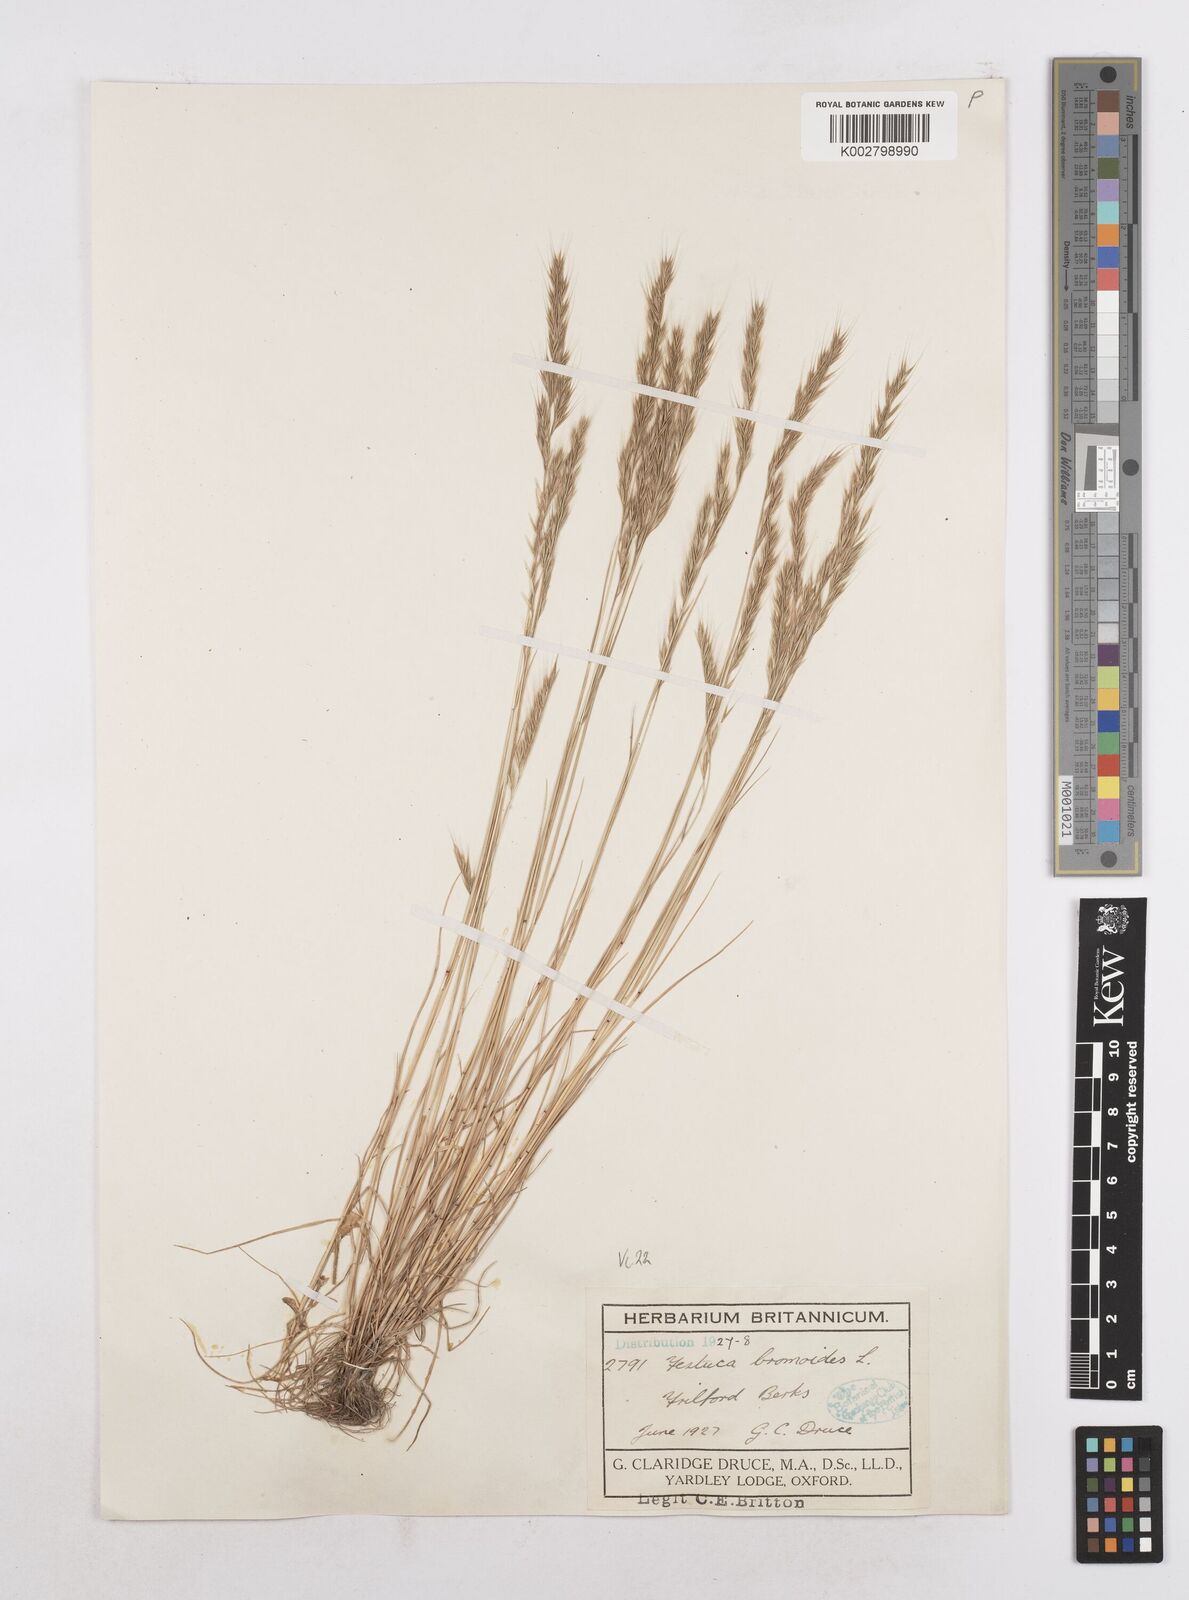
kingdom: Plantae
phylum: Tracheophyta
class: Liliopsida
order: Poales
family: Poaceae
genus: Festuca
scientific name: Festuca bromoides
